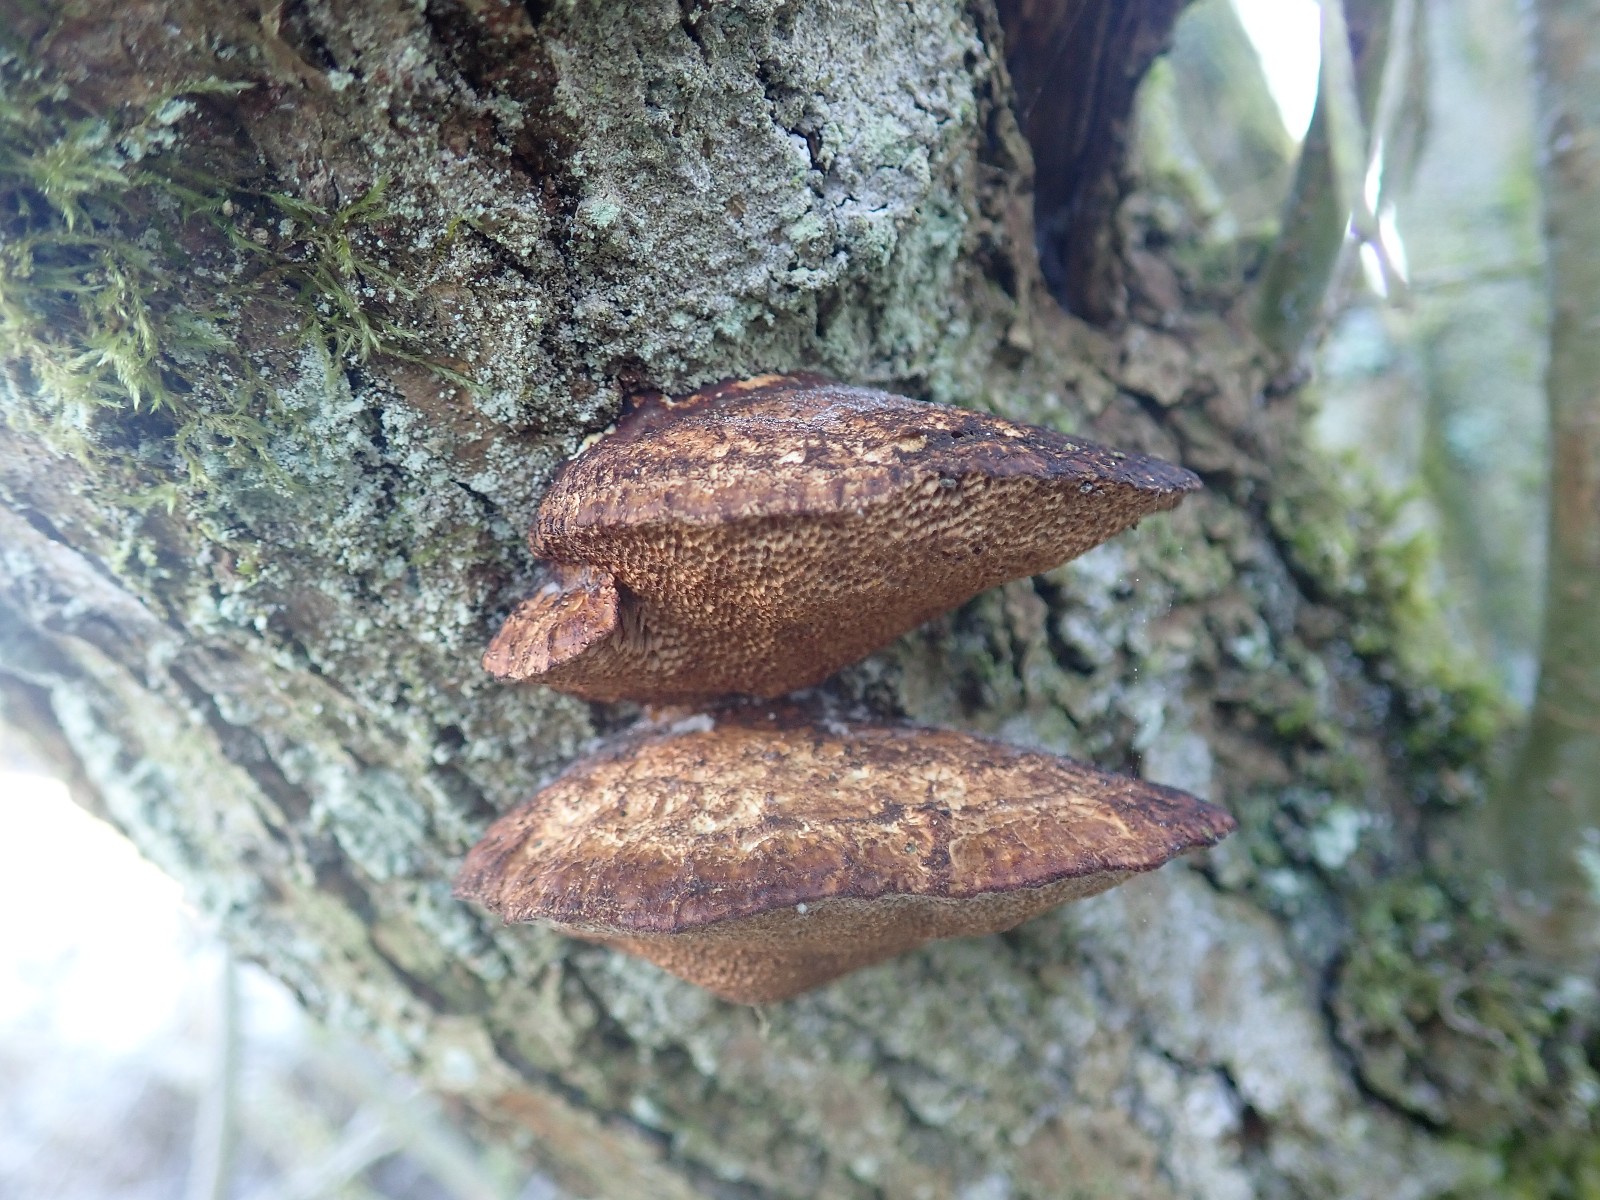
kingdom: Fungi
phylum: Basidiomycota
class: Agaricomycetes
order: Polyporales
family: Polyporaceae
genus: Daedaleopsis
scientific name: Daedaleopsis confragosa
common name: rødmende læderporesvamp
